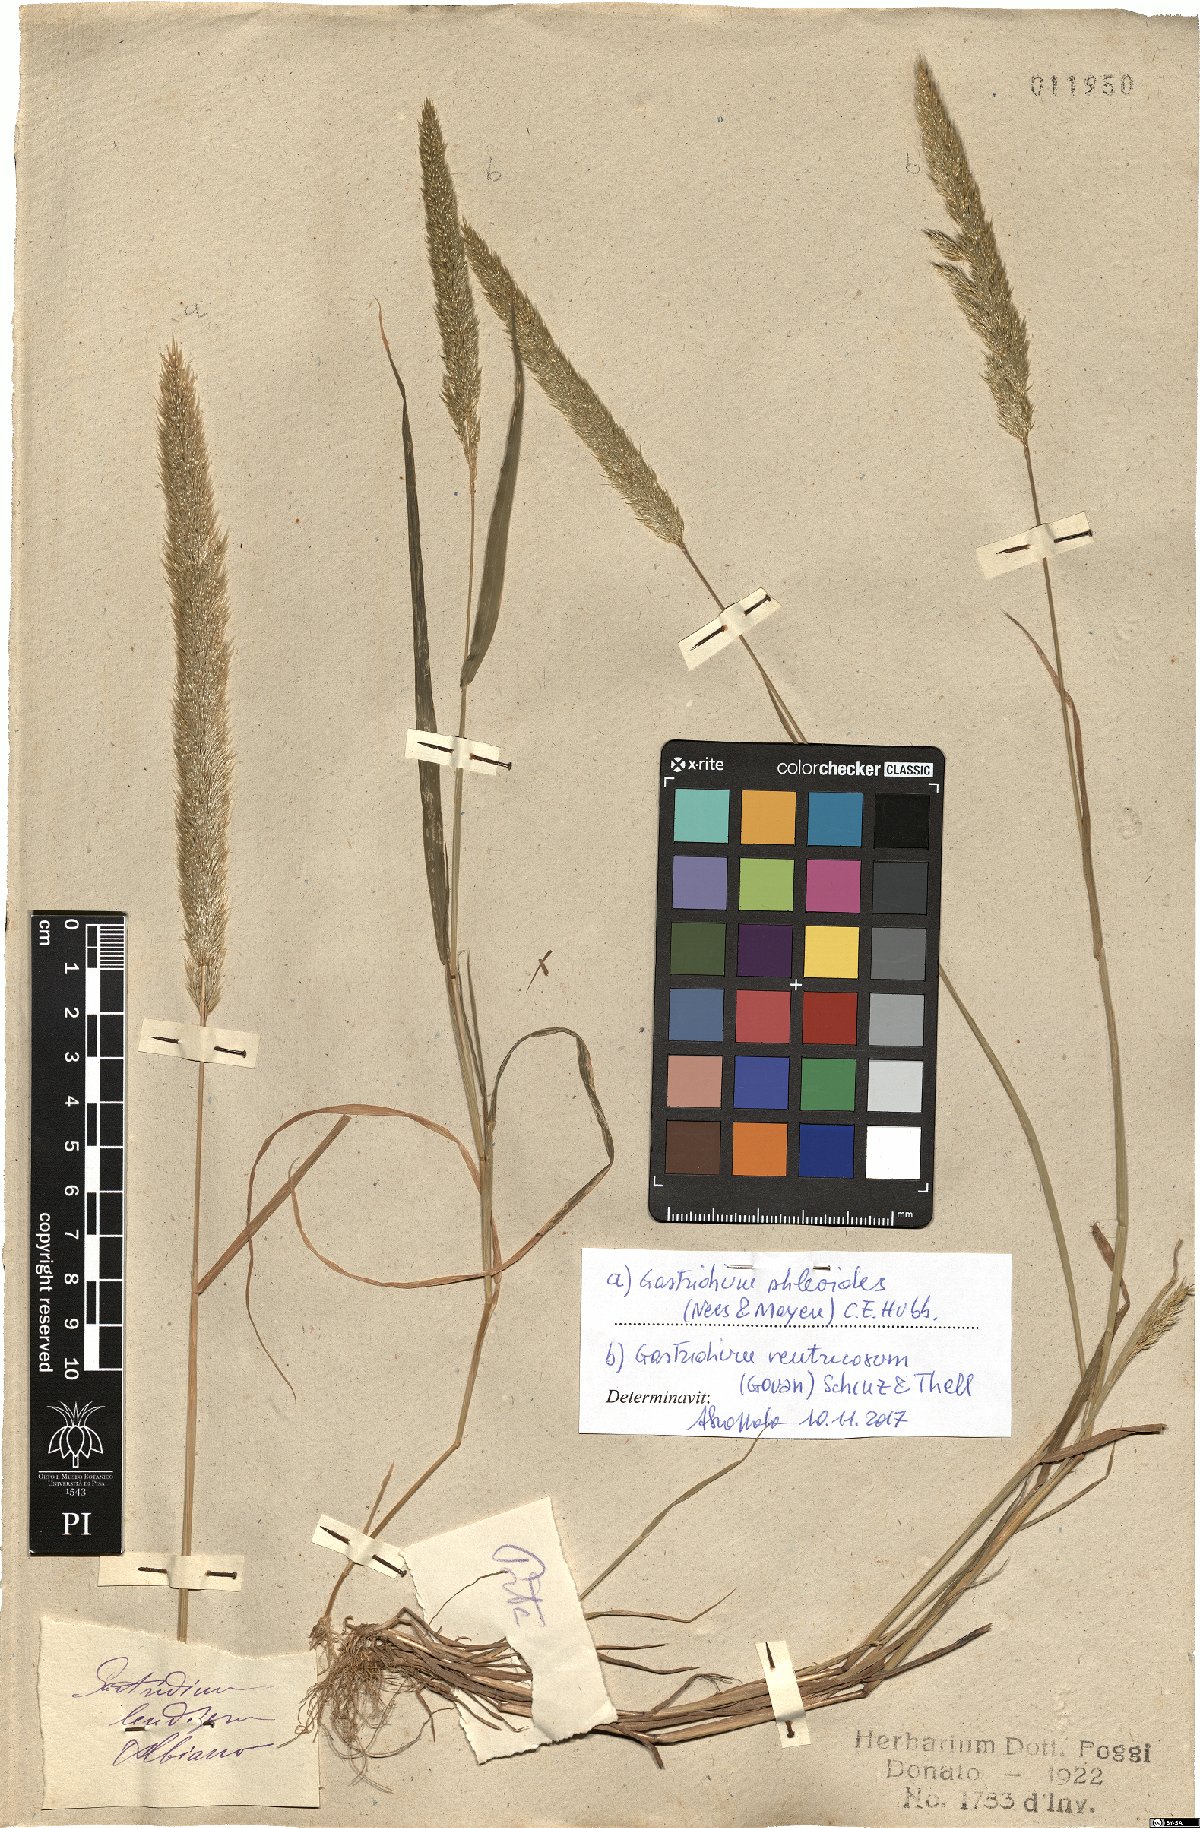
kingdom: Plantae
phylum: Tracheophyta
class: Liliopsida
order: Poales
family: Poaceae
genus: Gastridium
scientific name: Gastridium phleoides
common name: Nit grass
